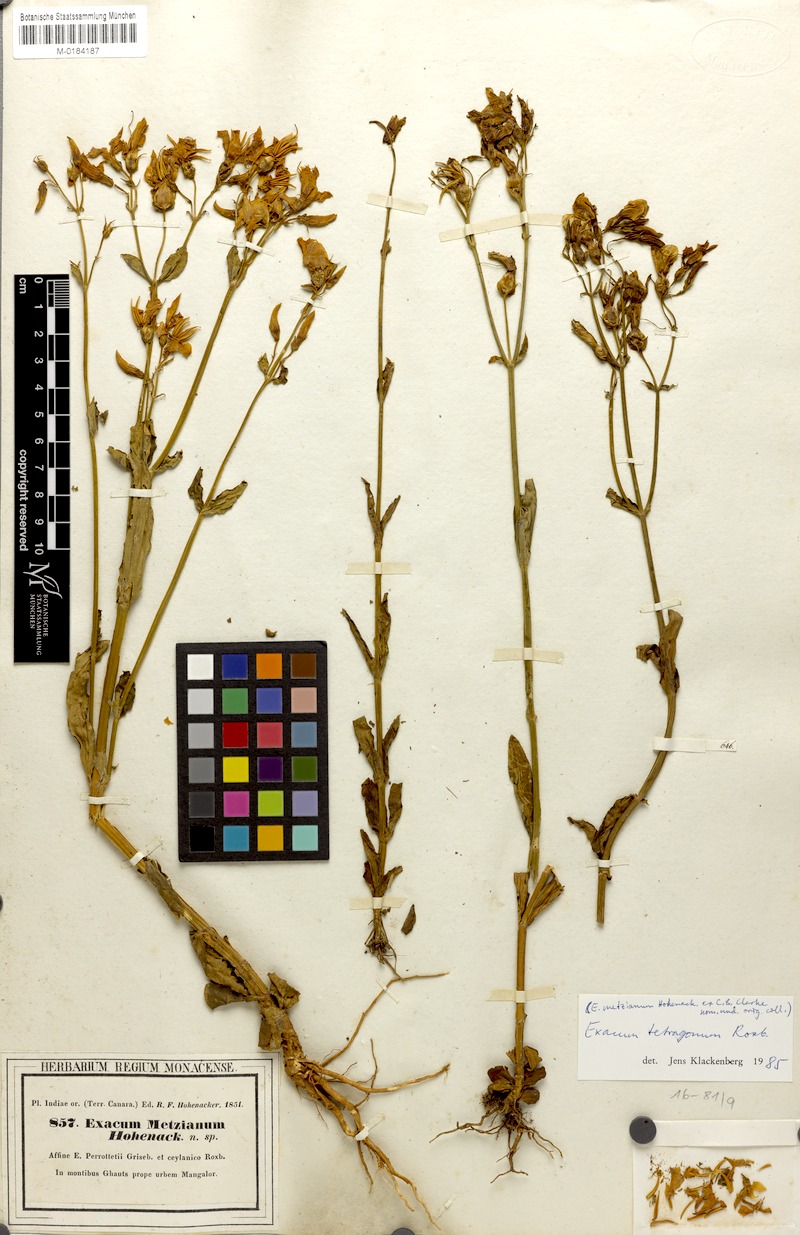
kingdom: Plantae
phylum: Tracheophyta
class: Magnoliopsida
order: Gentianales
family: Gentianaceae
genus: Exacum
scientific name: Exacum tetragonum
